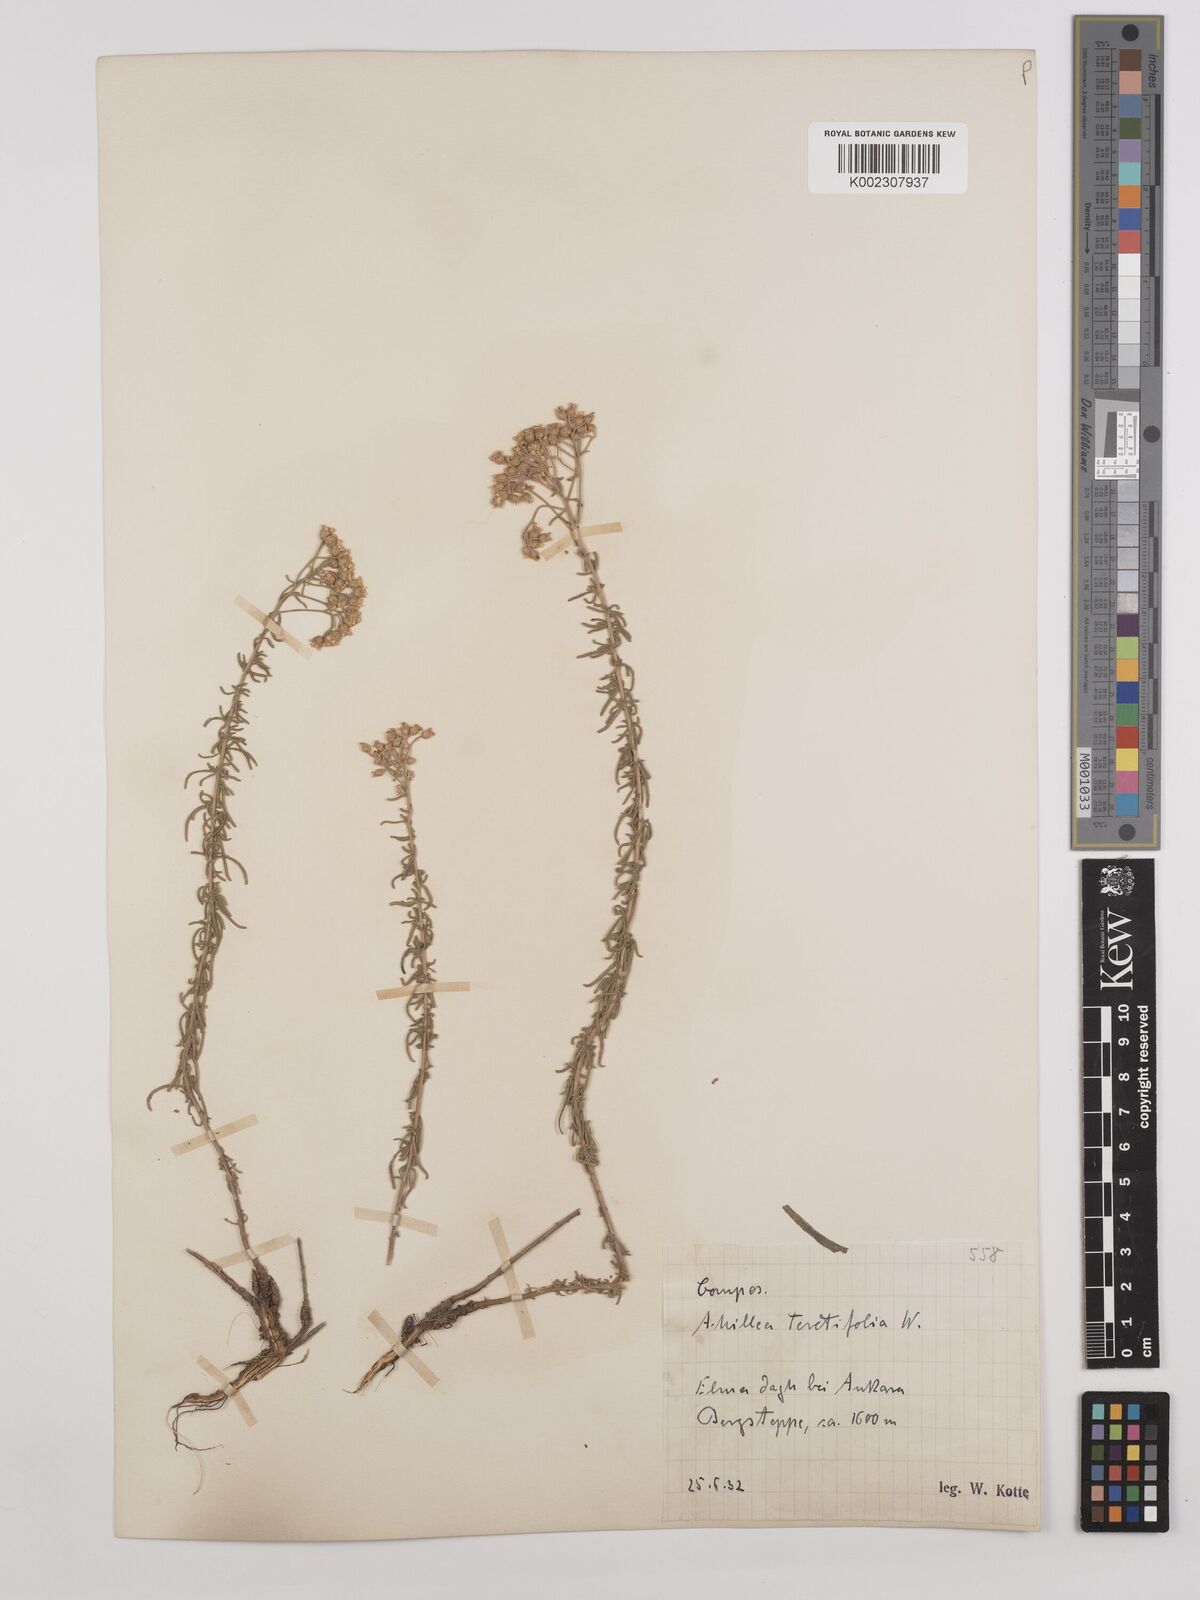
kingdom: Plantae
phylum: Tracheophyta
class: Magnoliopsida
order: Asterales
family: Asteraceae
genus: Achillea
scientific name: Achillea wilhelmsii
